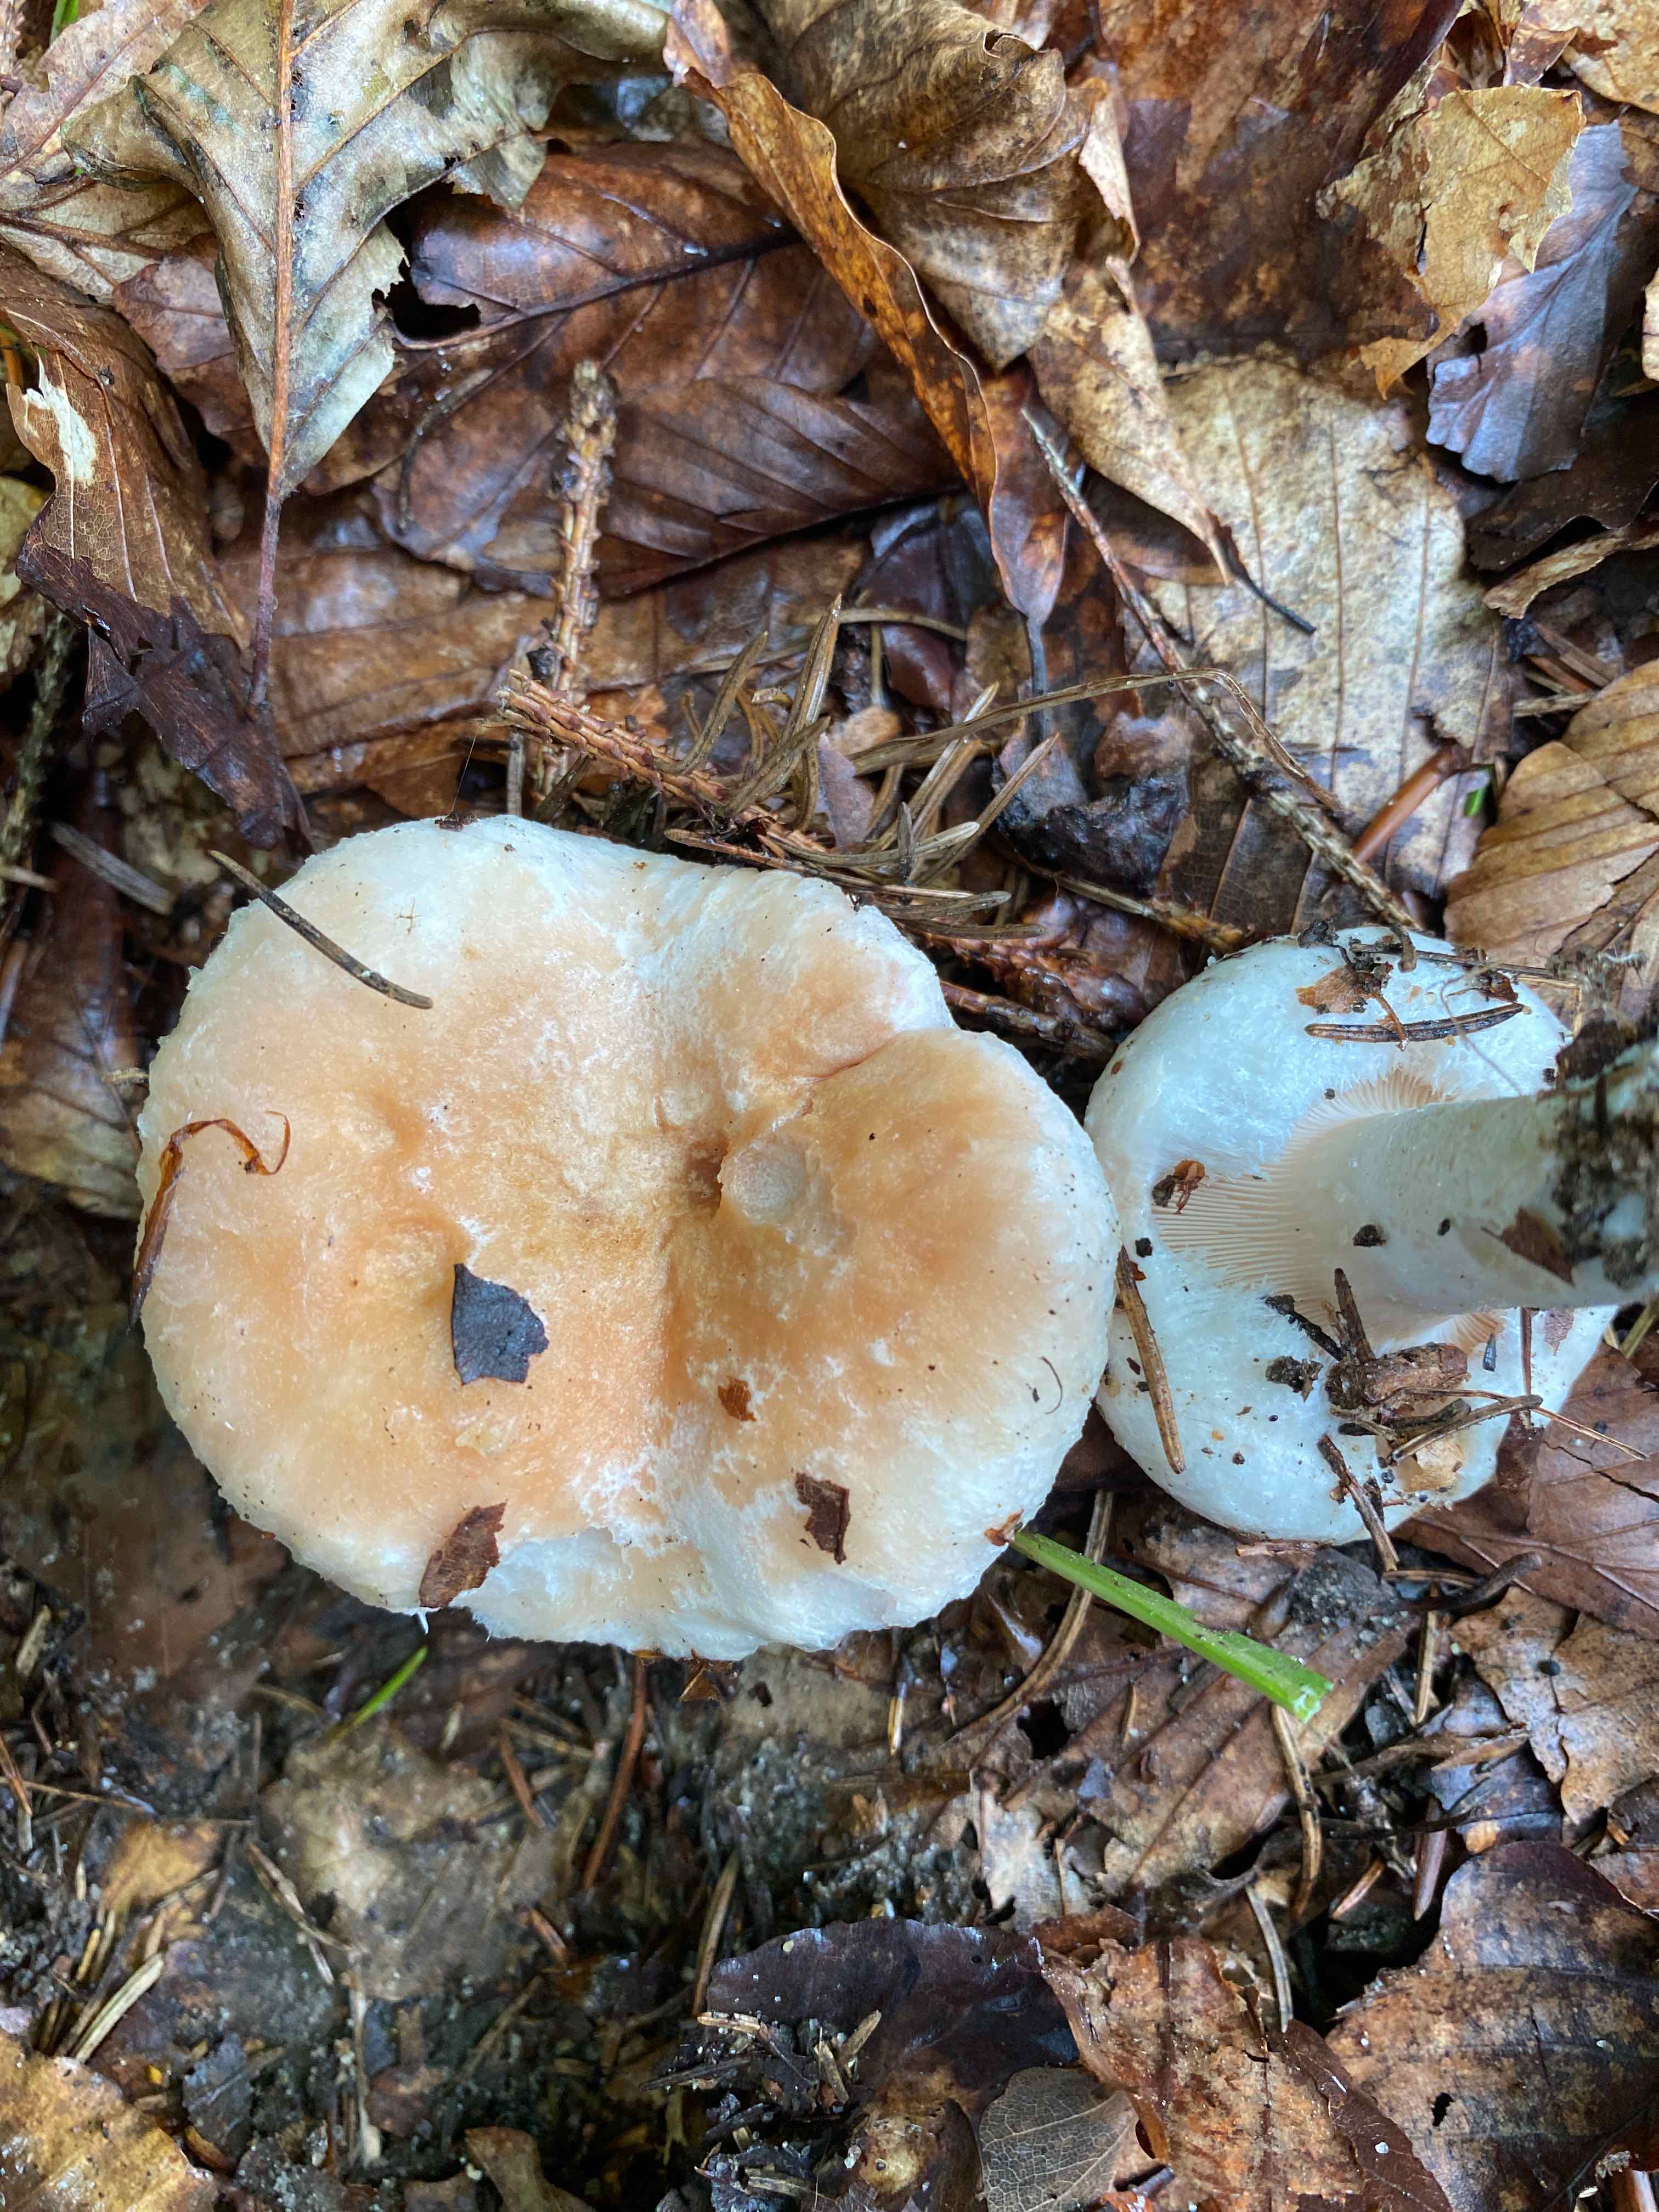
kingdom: Fungi
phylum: Basidiomycota
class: Agaricomycetes
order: Russulales
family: Russulaceae
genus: Lactarius
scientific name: Lactarius pubescens
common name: dunet mælkehat
